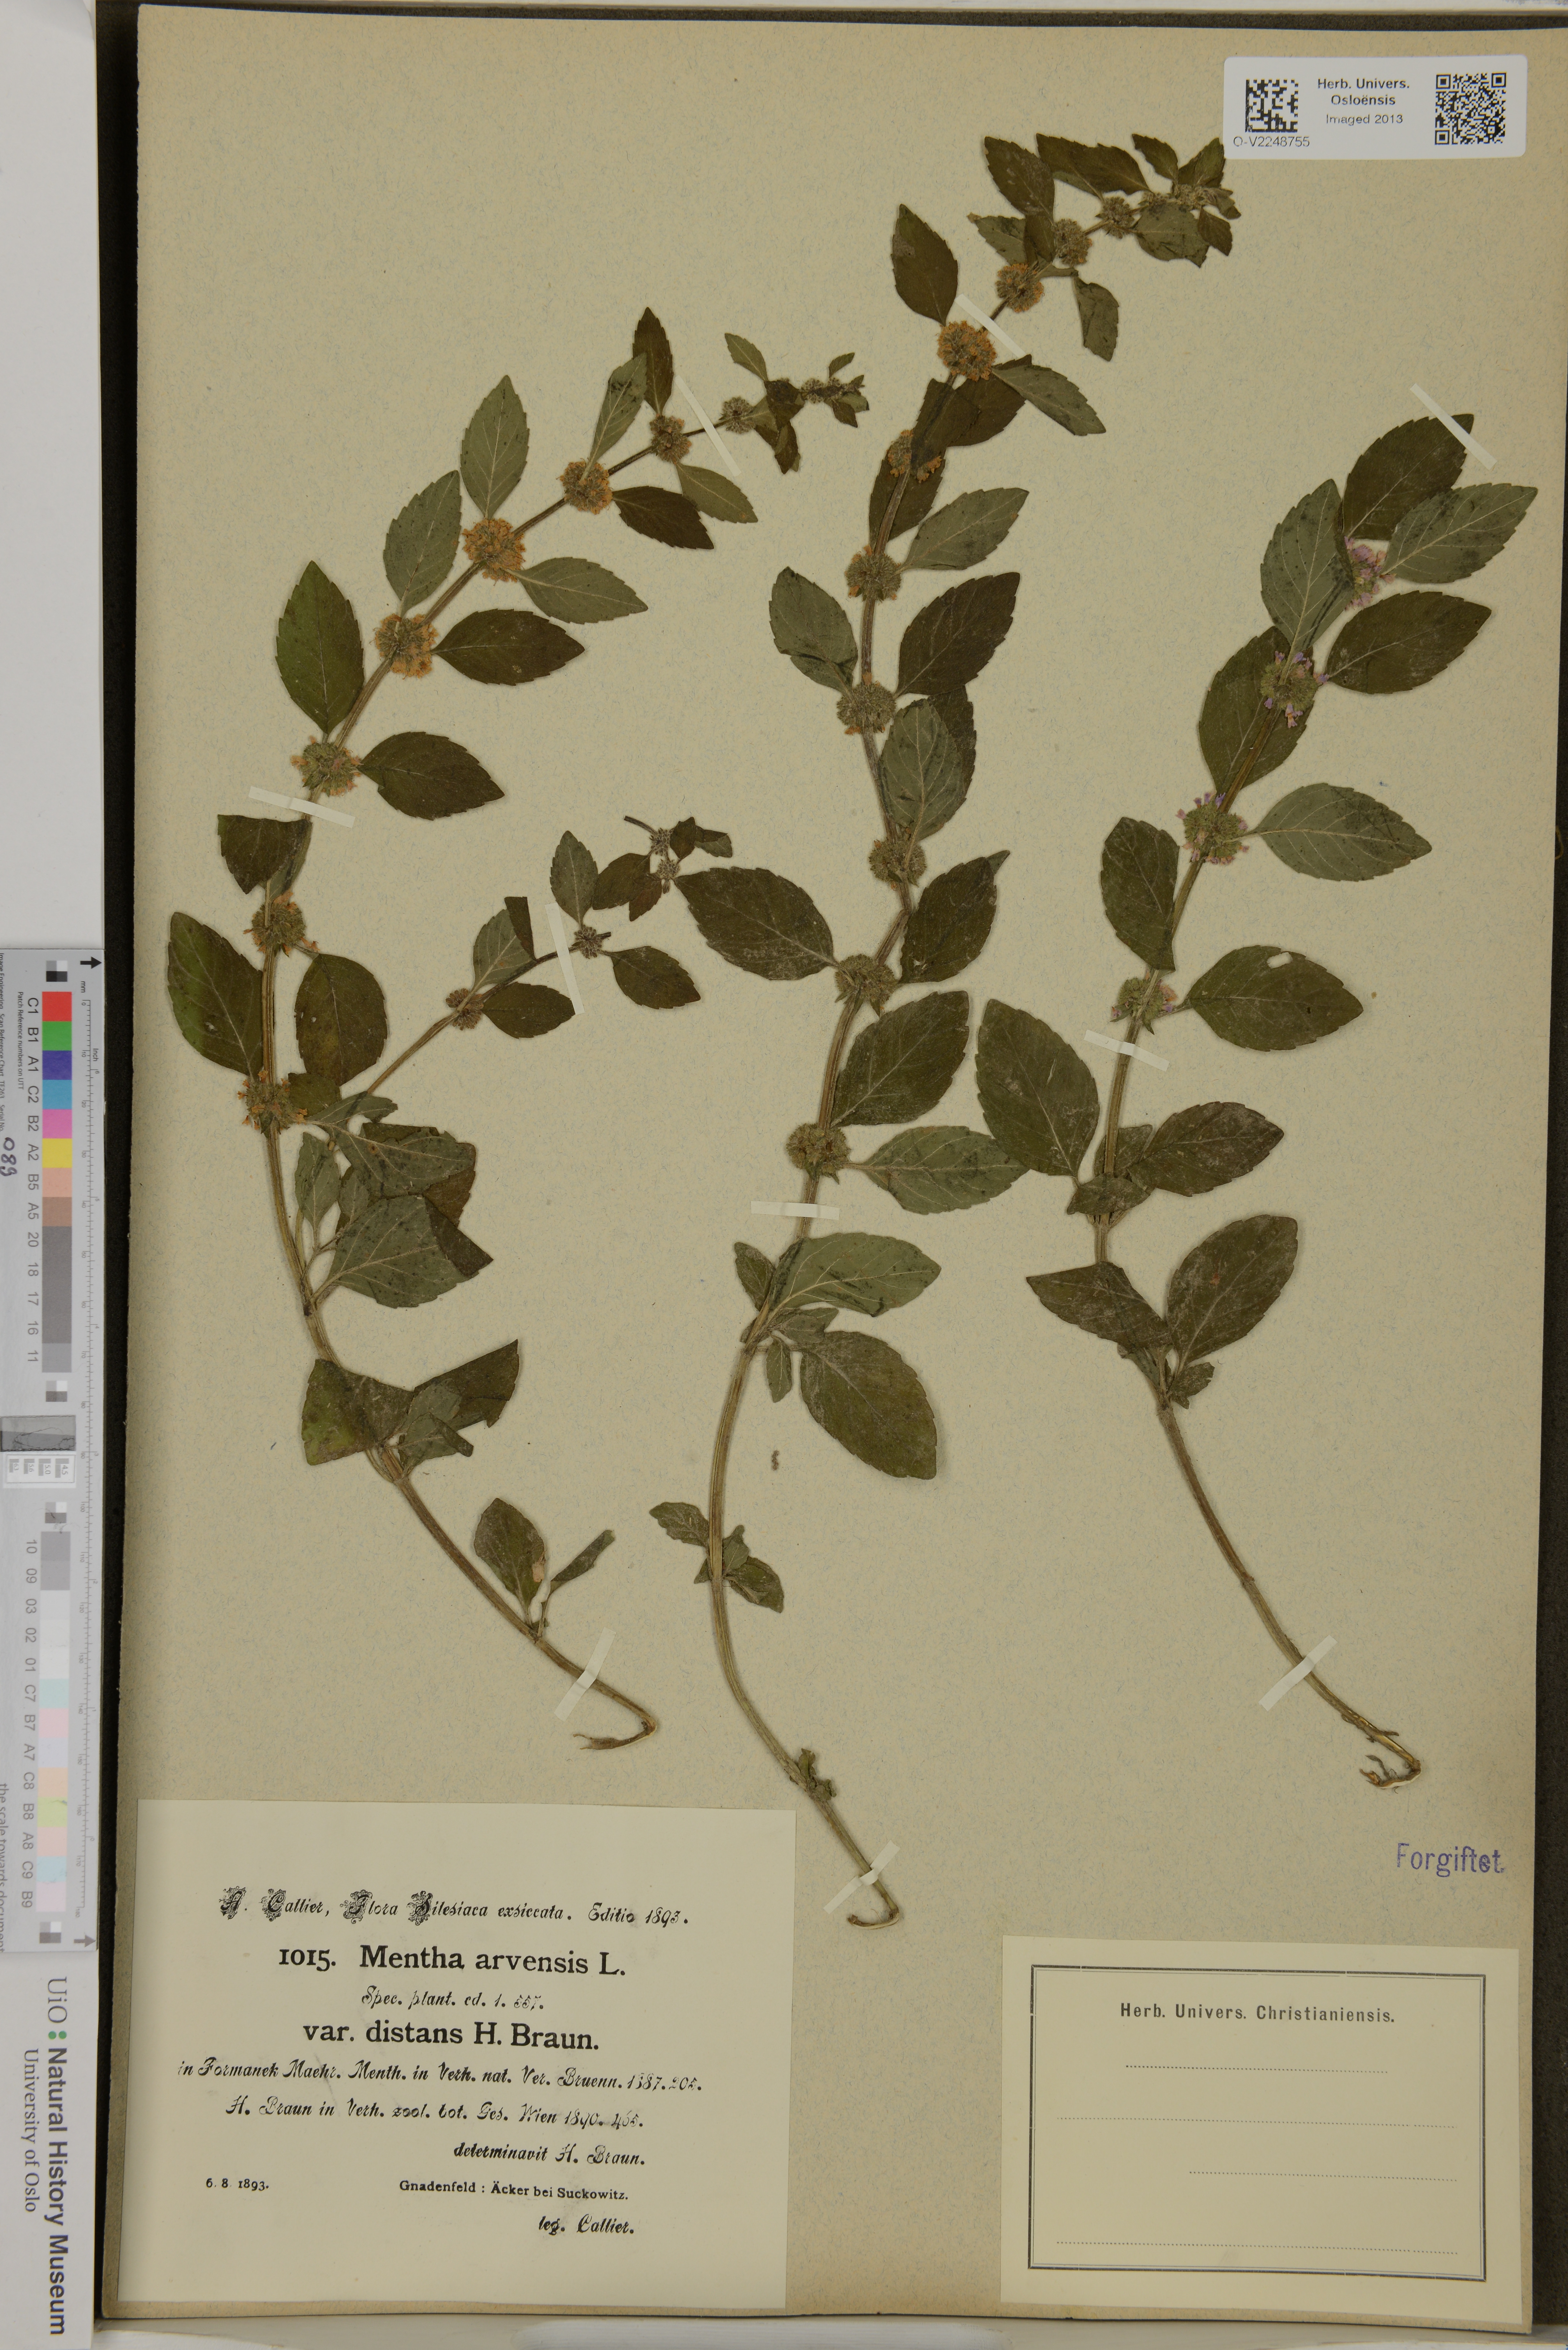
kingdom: Plantae
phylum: Tracheophyta
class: Magnoliopsida
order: Lamiales
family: Lamiaceae
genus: Mentha
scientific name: Mentha arvensis
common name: Corn mint
